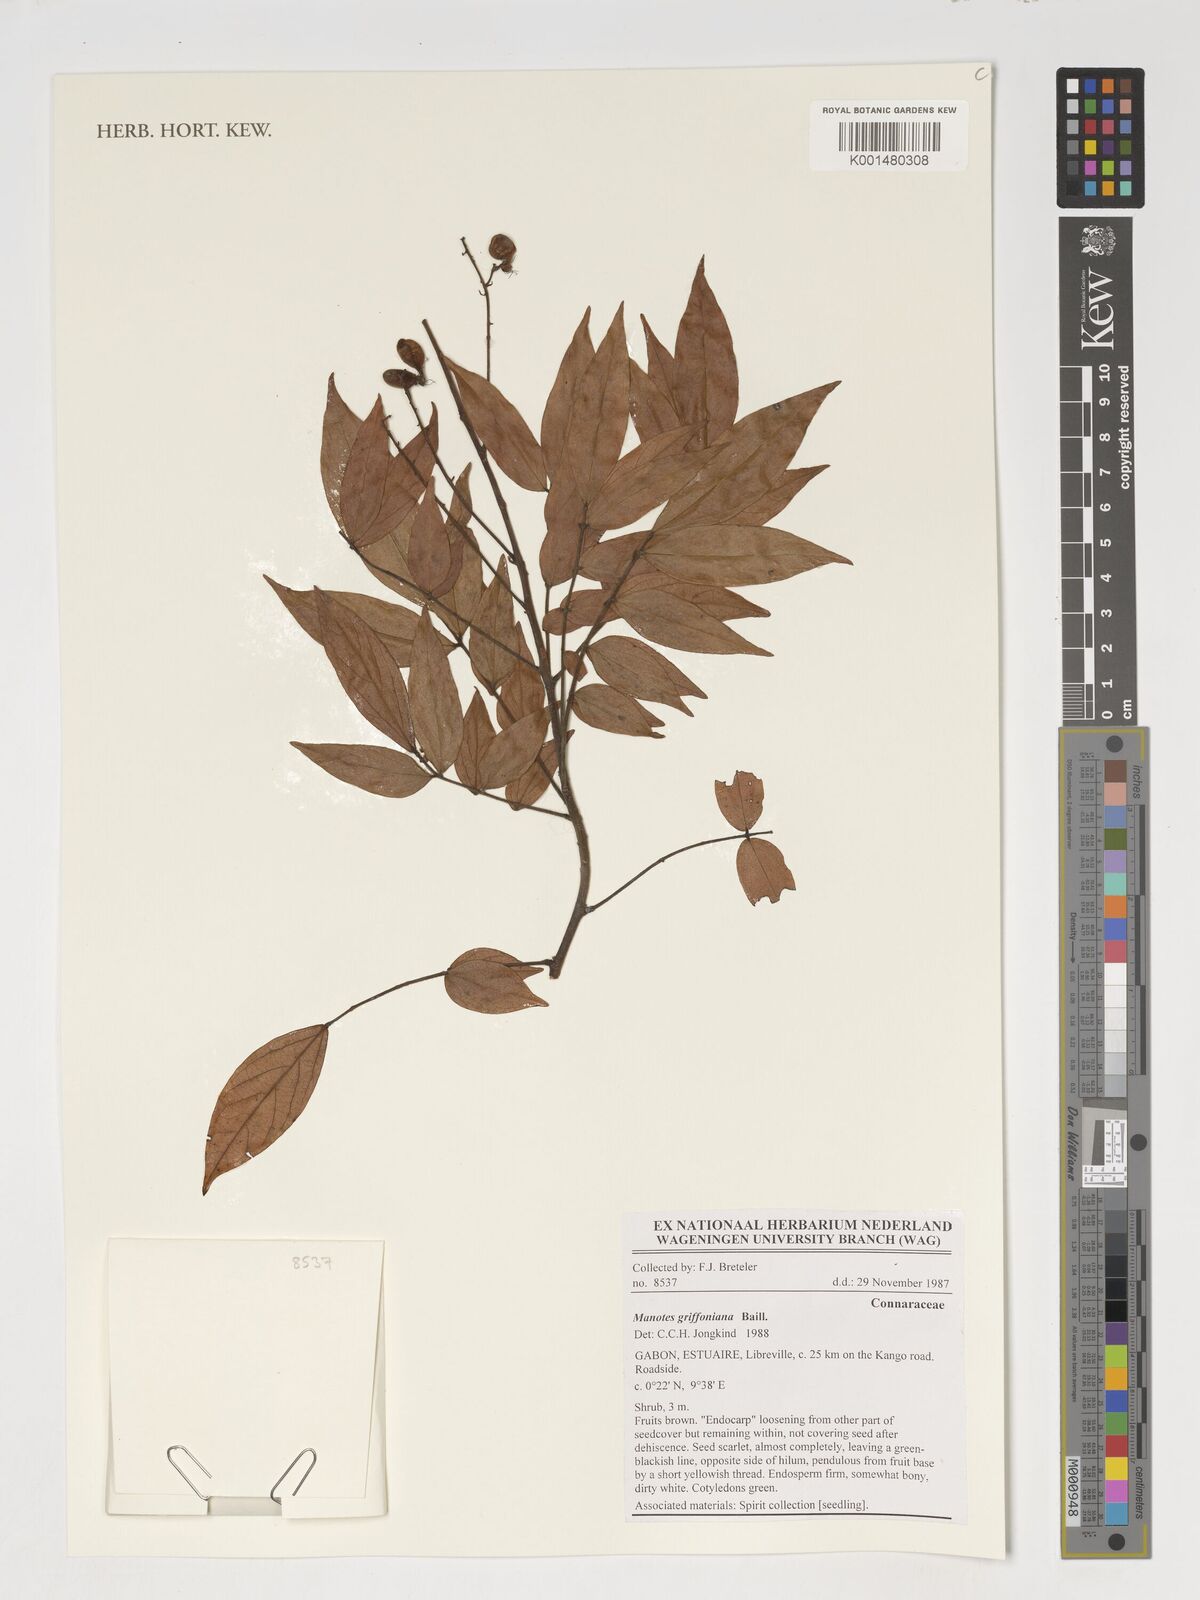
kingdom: Plantae
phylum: Tracheophyta
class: Magnoliopsida
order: Oxalidales
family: Connaraceae
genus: Manotes
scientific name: Manotes griffoniana
